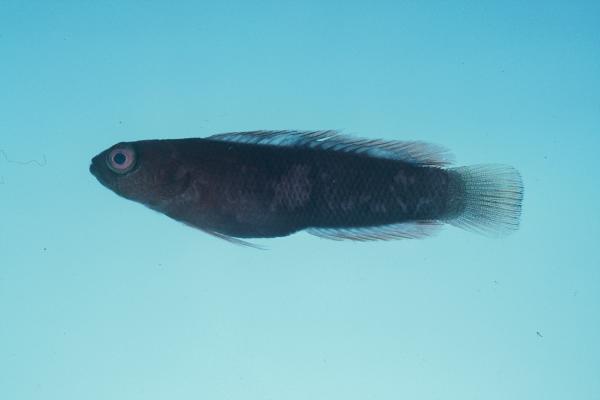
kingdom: Animalia
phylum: Chordata
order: Perciformes
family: Pseudochromidae
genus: Chlidichthys
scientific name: Chlidichthys smithae
